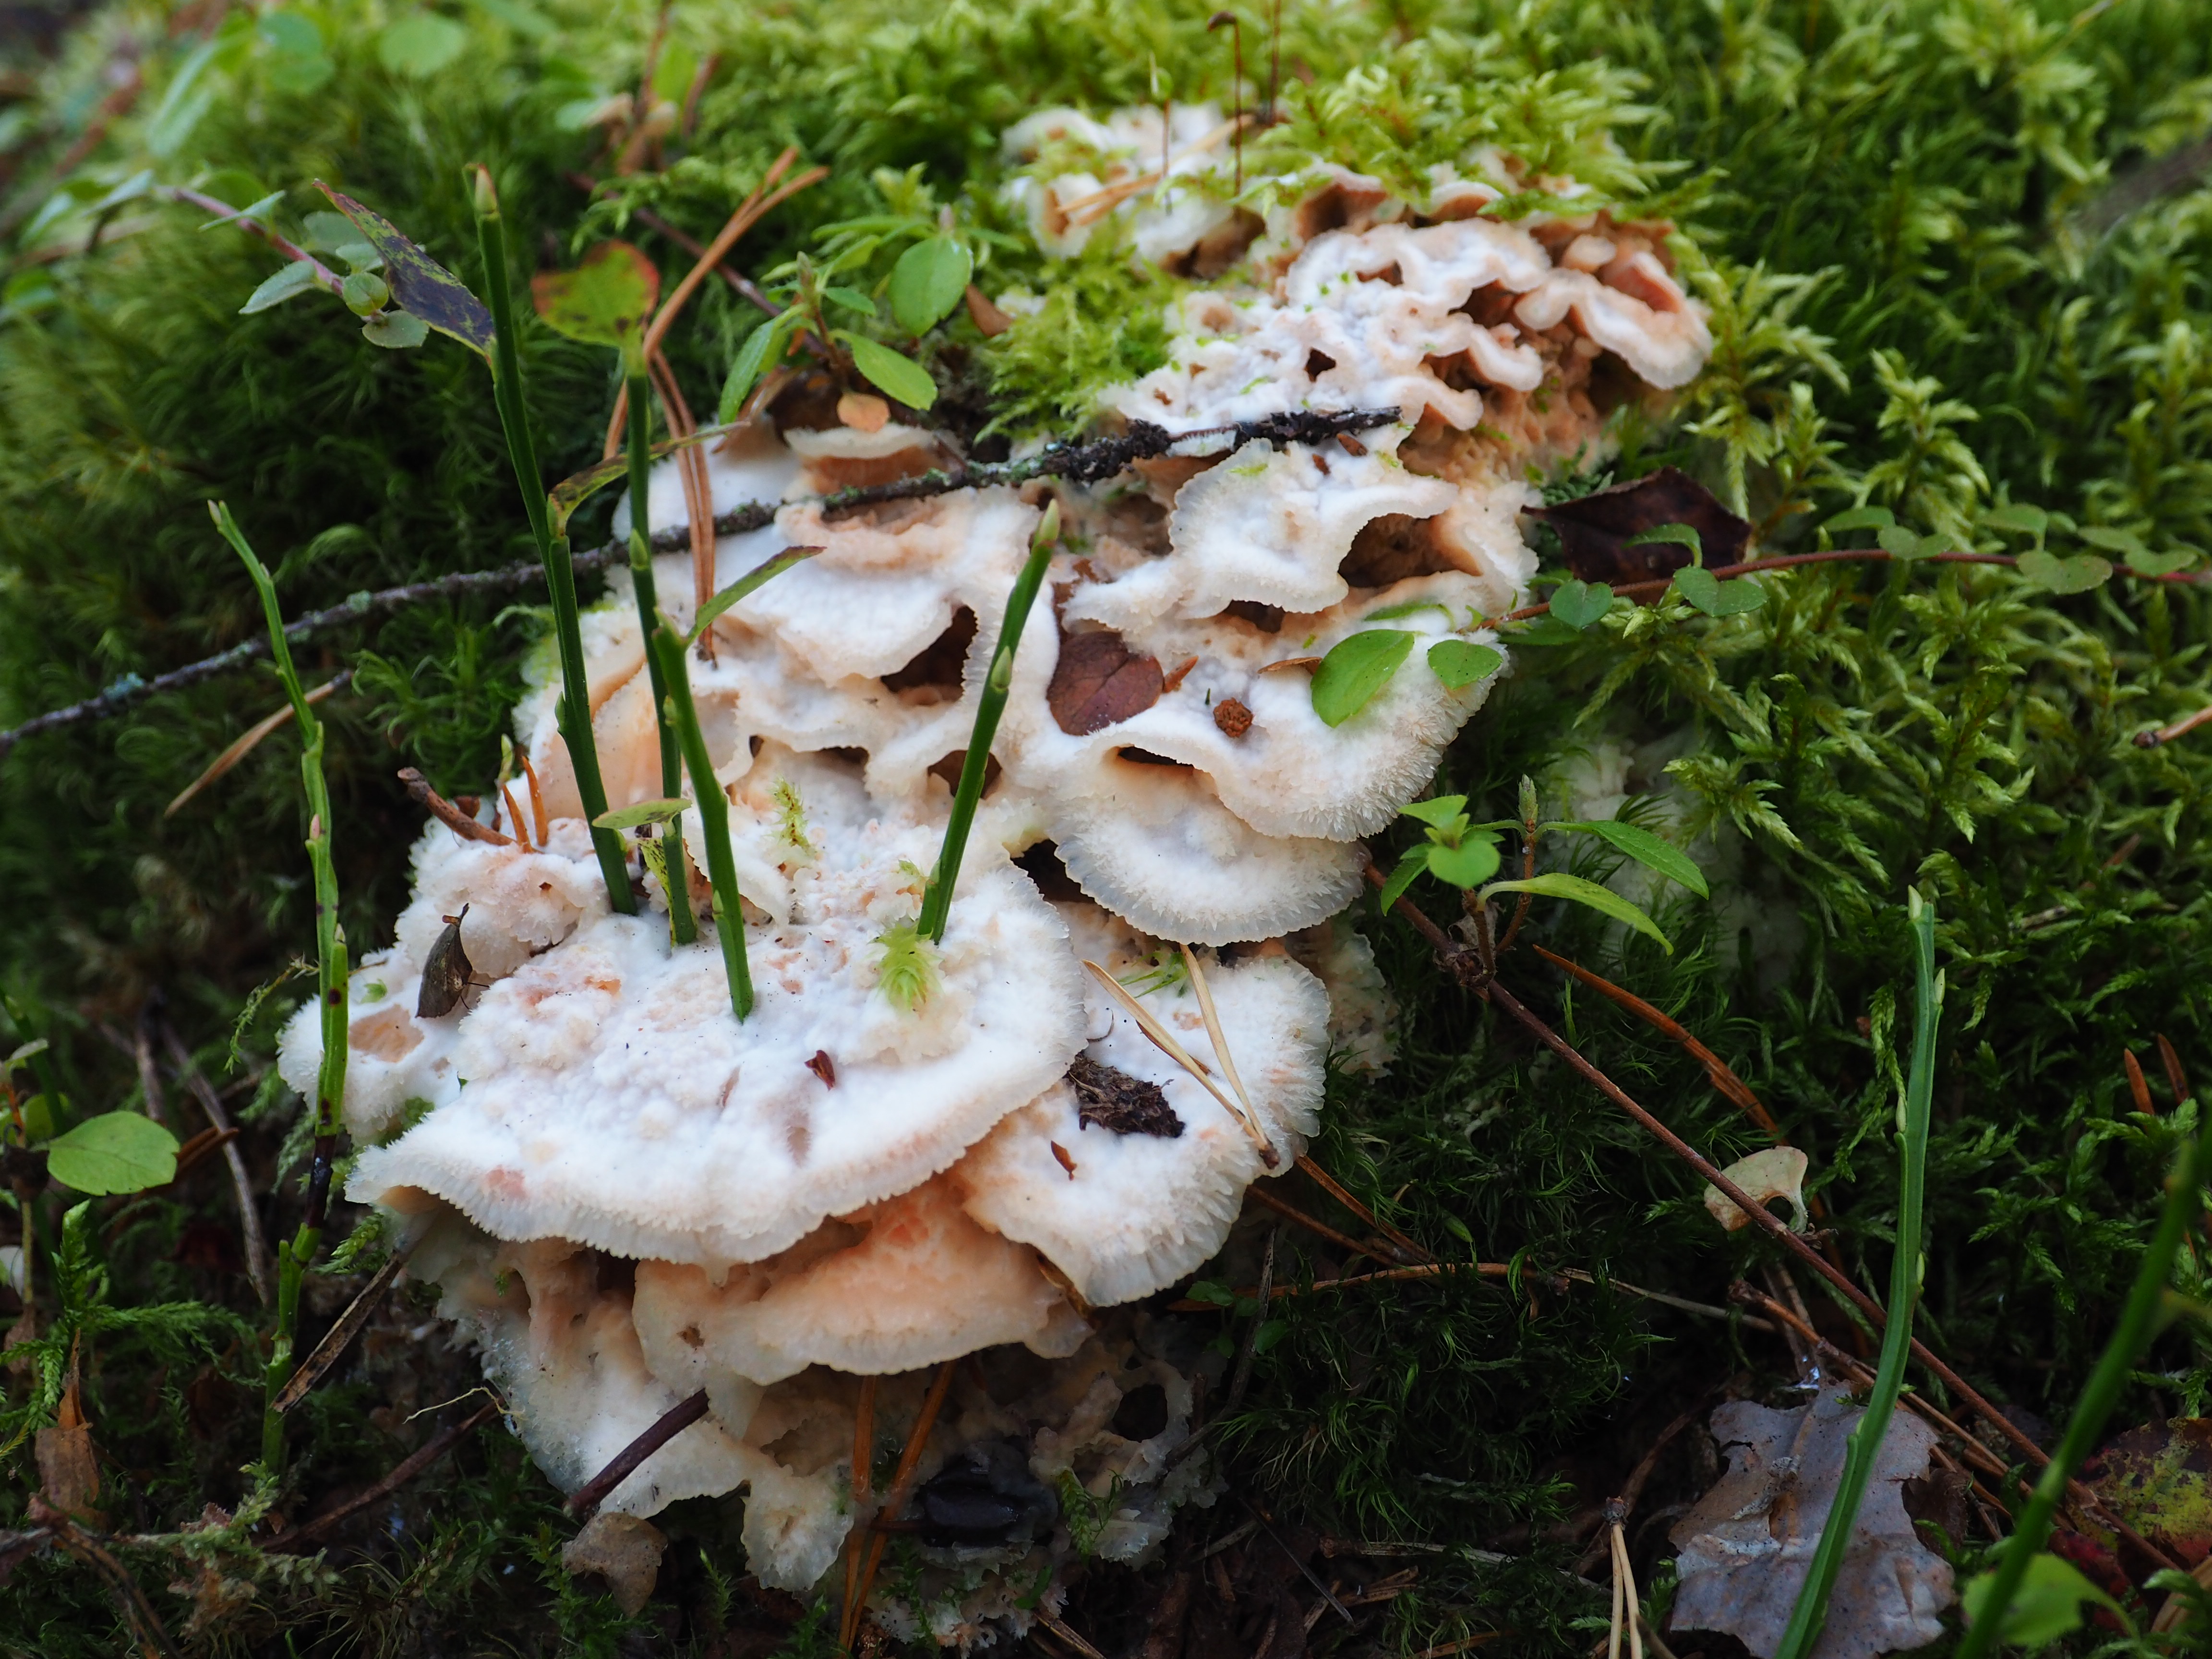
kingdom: Fungi
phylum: Basidiomycota
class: Agaricomycetes
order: Polyporales
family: Meruliaceae
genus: Phlebia
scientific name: Phlebia tremellosa
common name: Jelly rot
